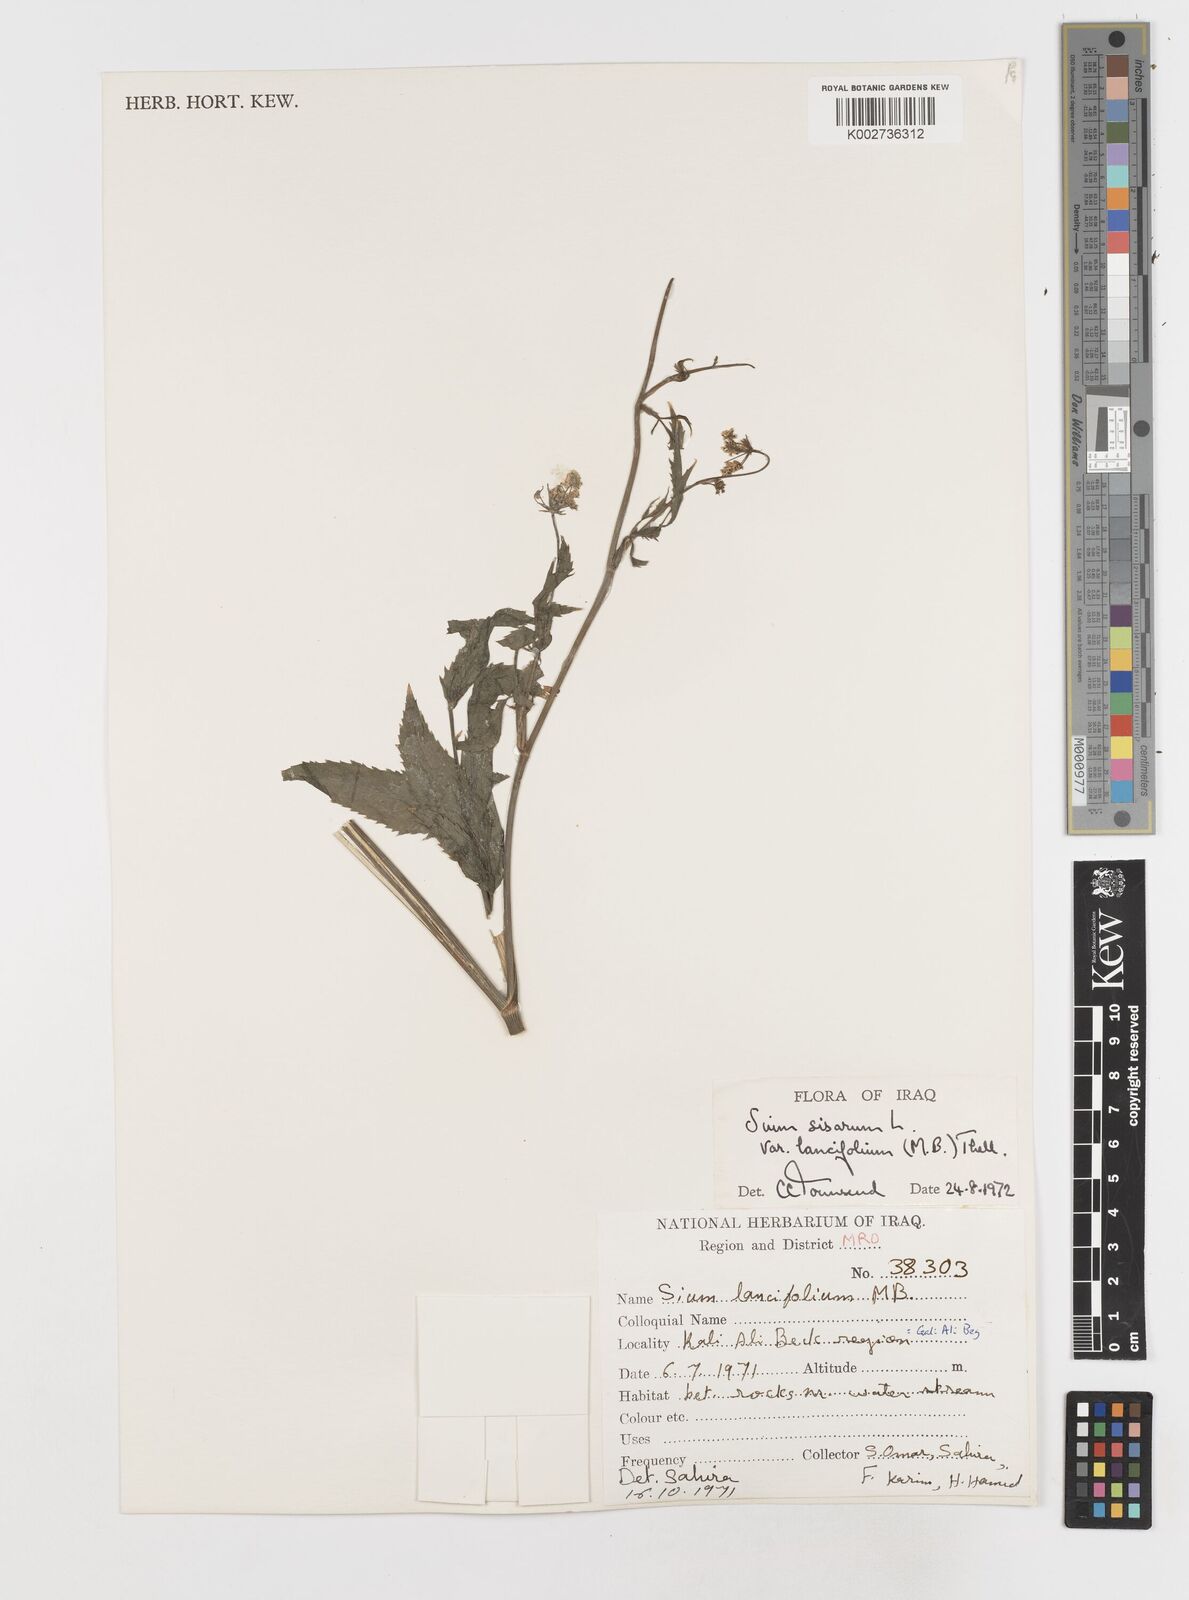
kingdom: Plantae
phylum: Tracheophyta
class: Magnoliopsida
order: Apiales
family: Apiaceae
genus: Sium
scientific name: Sium sisarum
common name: Skirret
